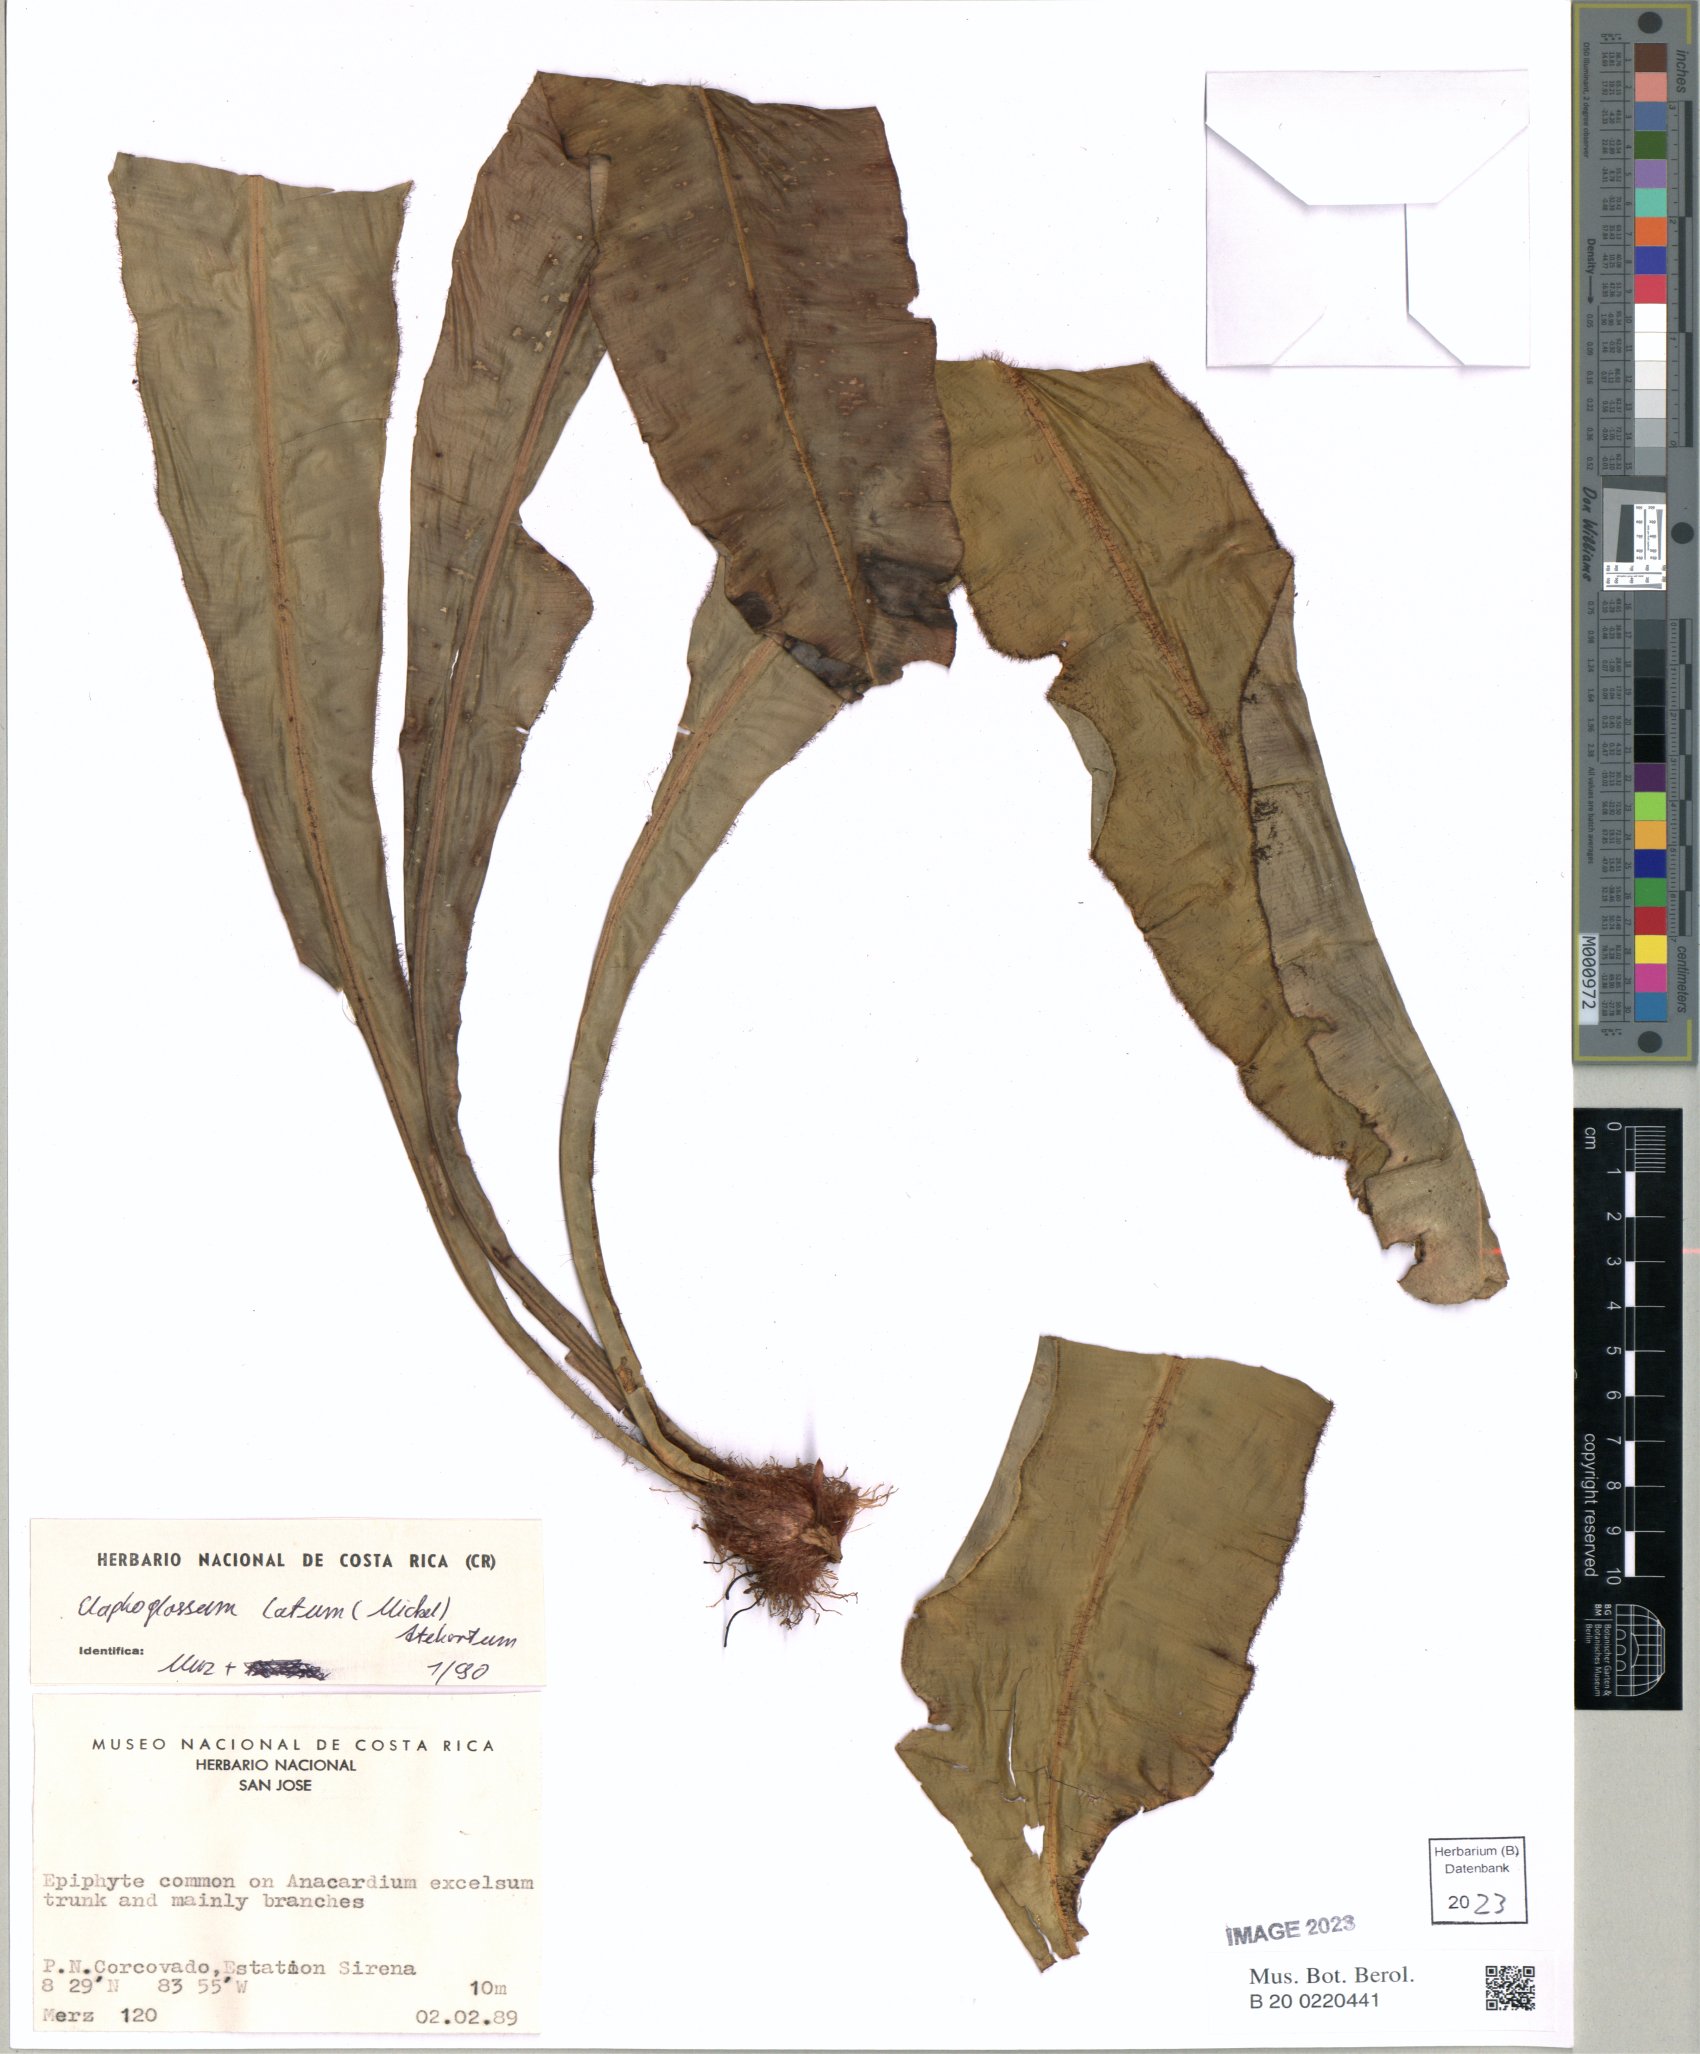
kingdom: Plantae
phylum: Tracheophyta
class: Polypodiopsida
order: Polypodiales
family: Dryopteridaceae
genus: Elaphoglossum
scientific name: Elaphoglossum latum
